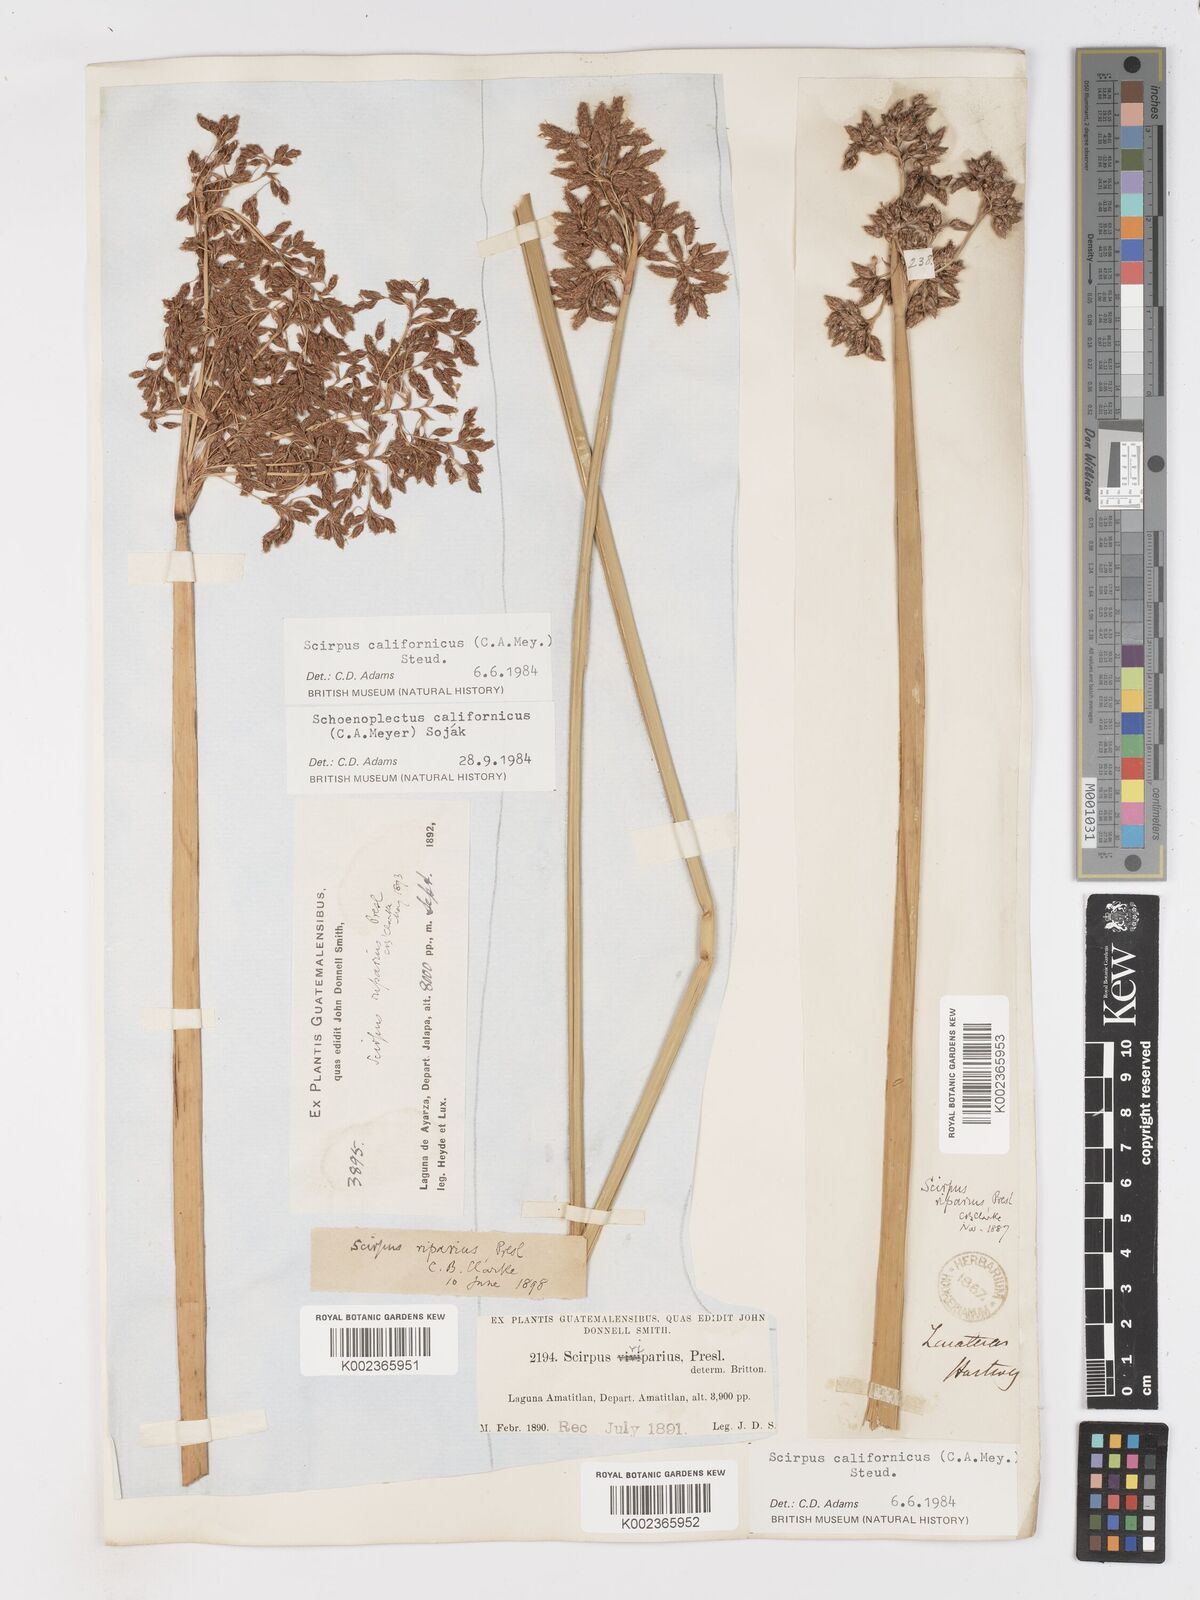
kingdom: Plantae
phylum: Tracheophyta
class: Liliopsida
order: Poales
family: Cyperaceae
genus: Schoenoplectus
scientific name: Schoenoplectus californicus
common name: California bulrush
